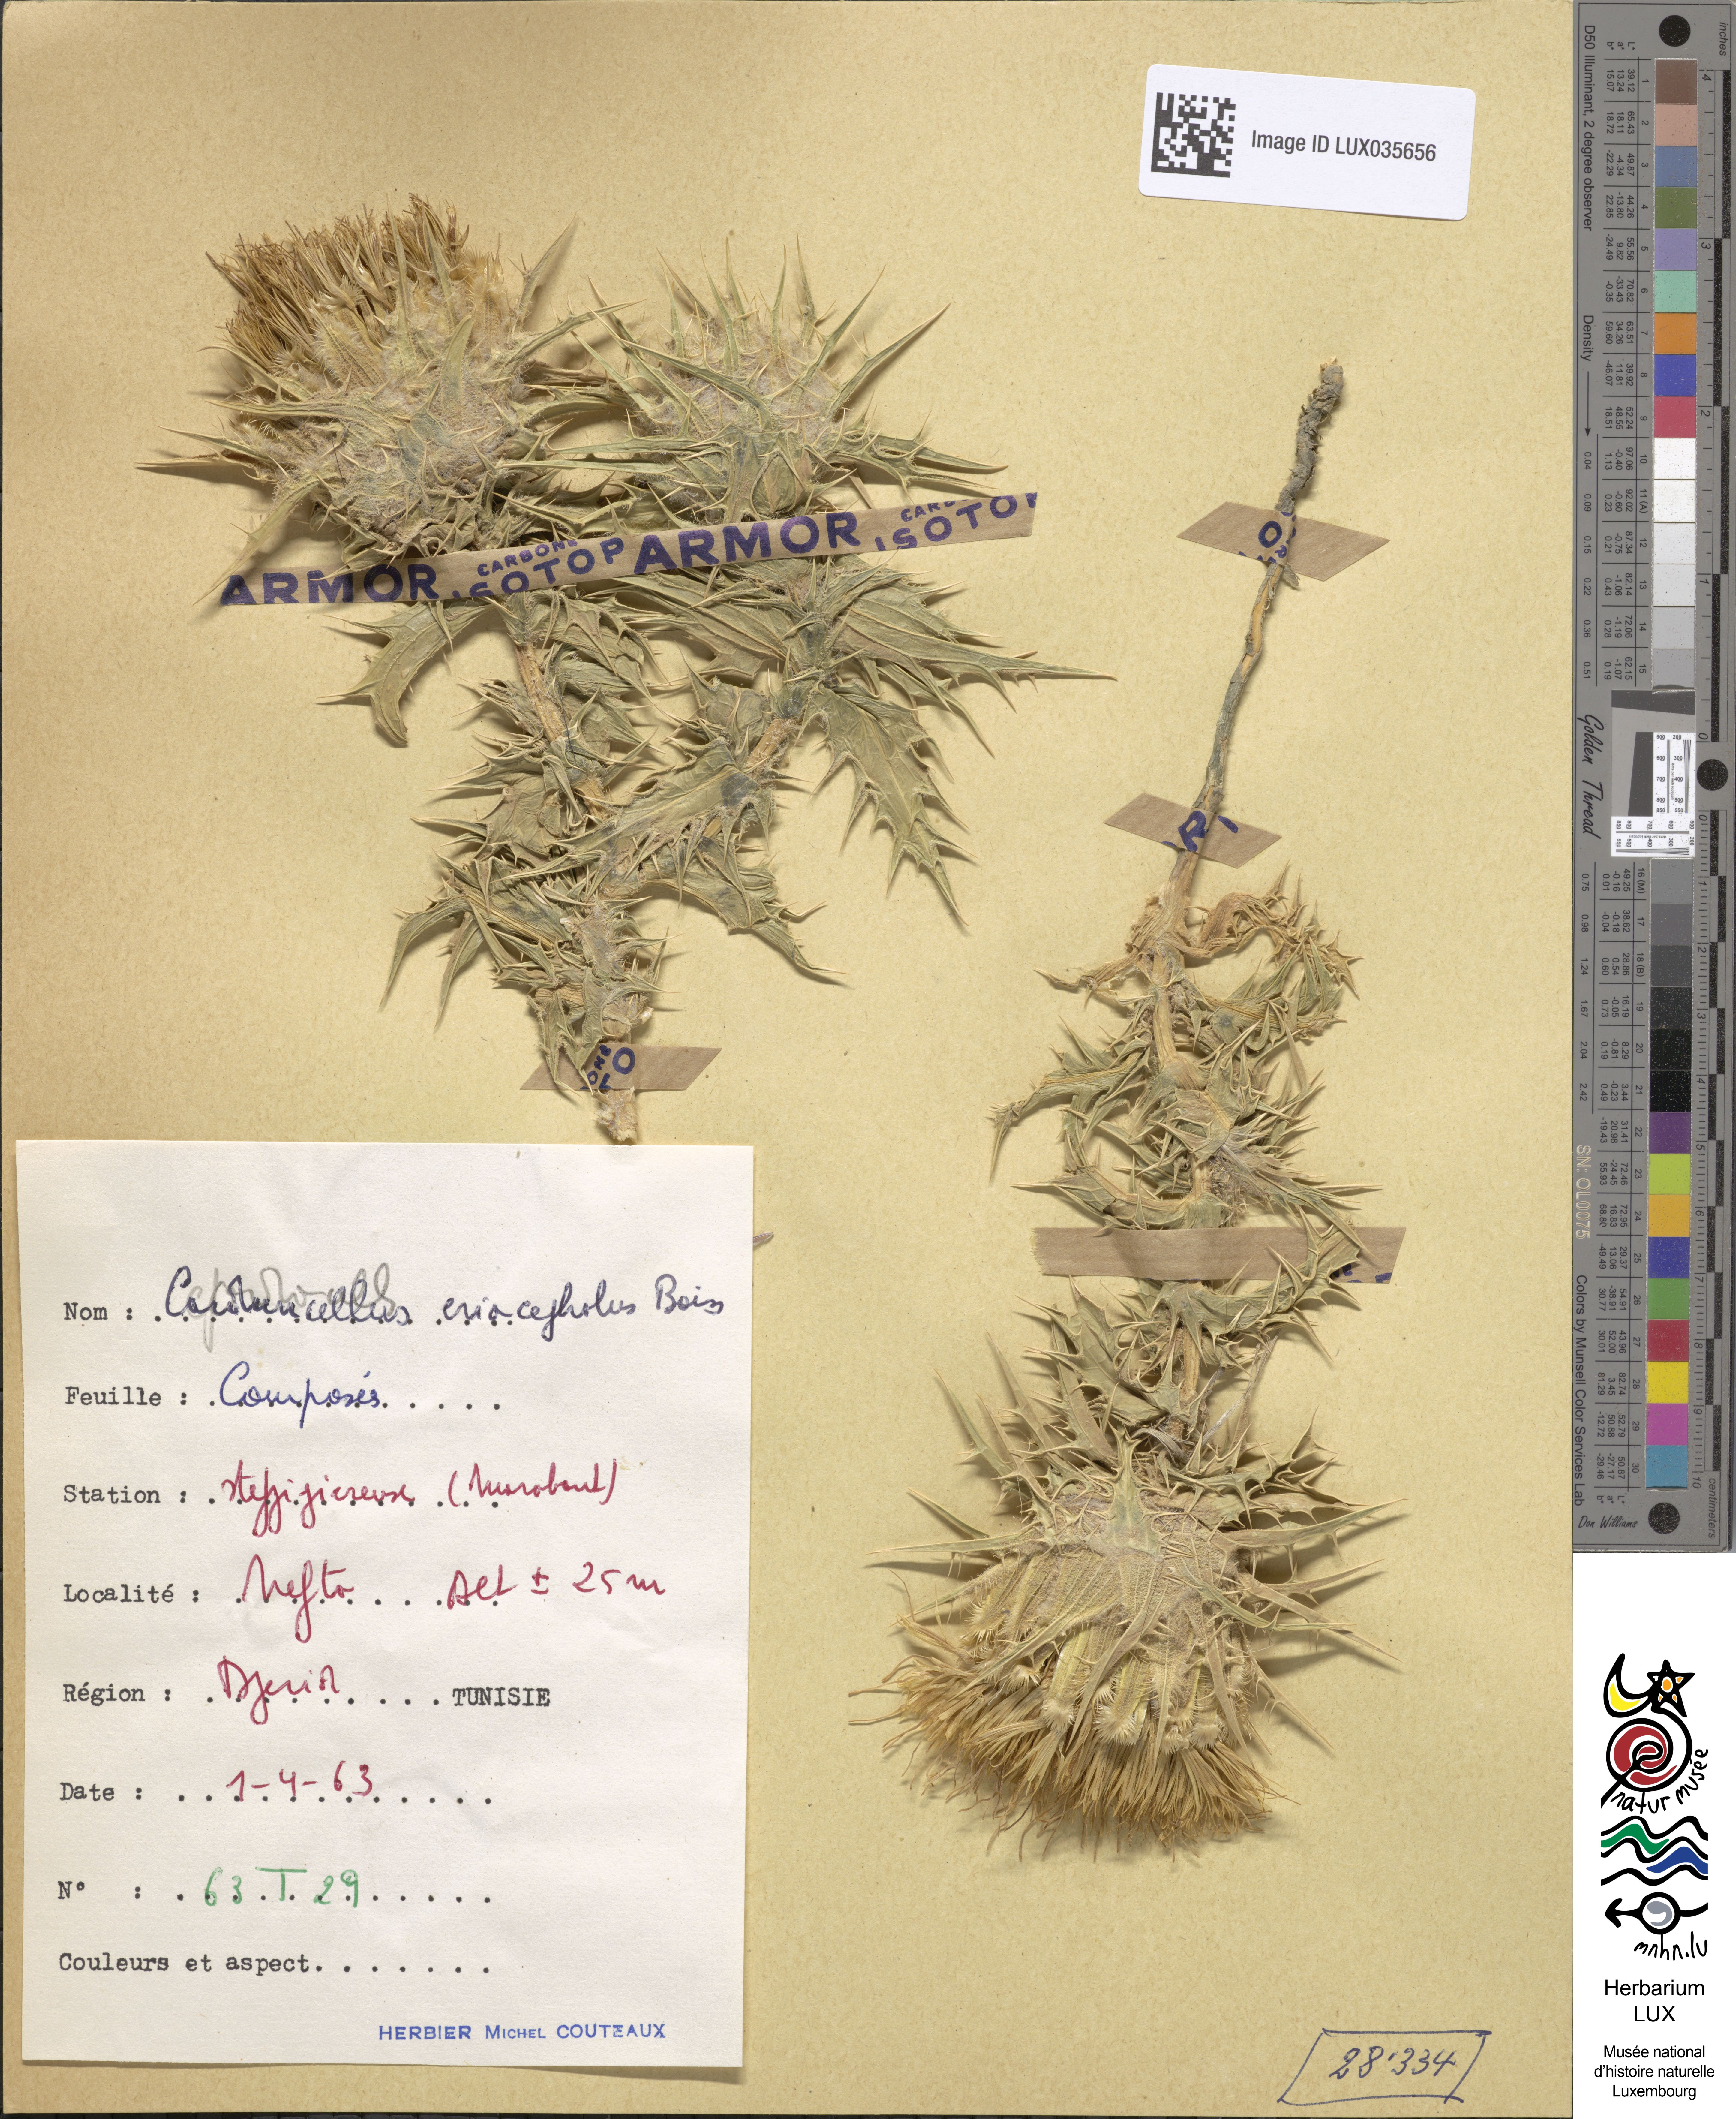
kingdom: Plantae
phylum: Tracheophyta
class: Magnoliopsida
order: Asterales
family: Asteraceae
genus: Carduncellus
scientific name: Carduncellus eriocephalus
